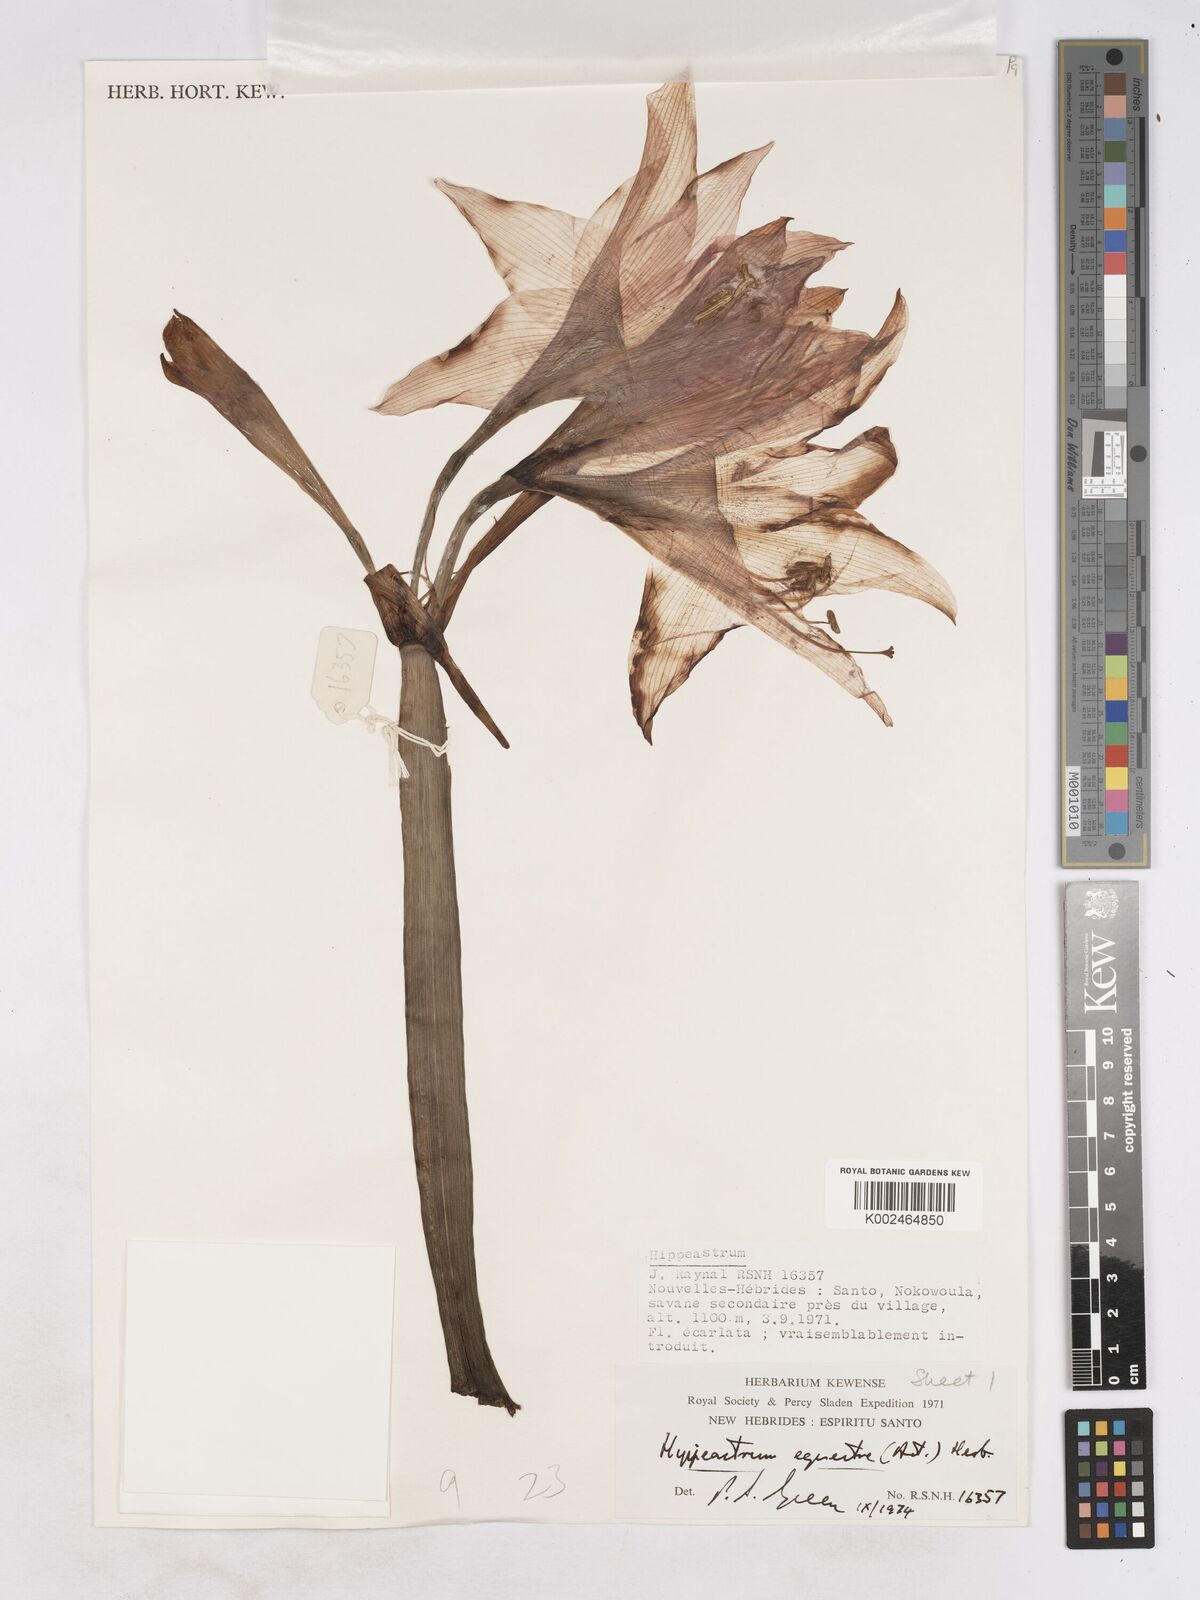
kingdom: Plantae
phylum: Tracheophyta
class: Liliopsida
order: Asparagales
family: Amaryllidaceae
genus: Hippeastrum
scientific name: Hippeastrum puniceum
